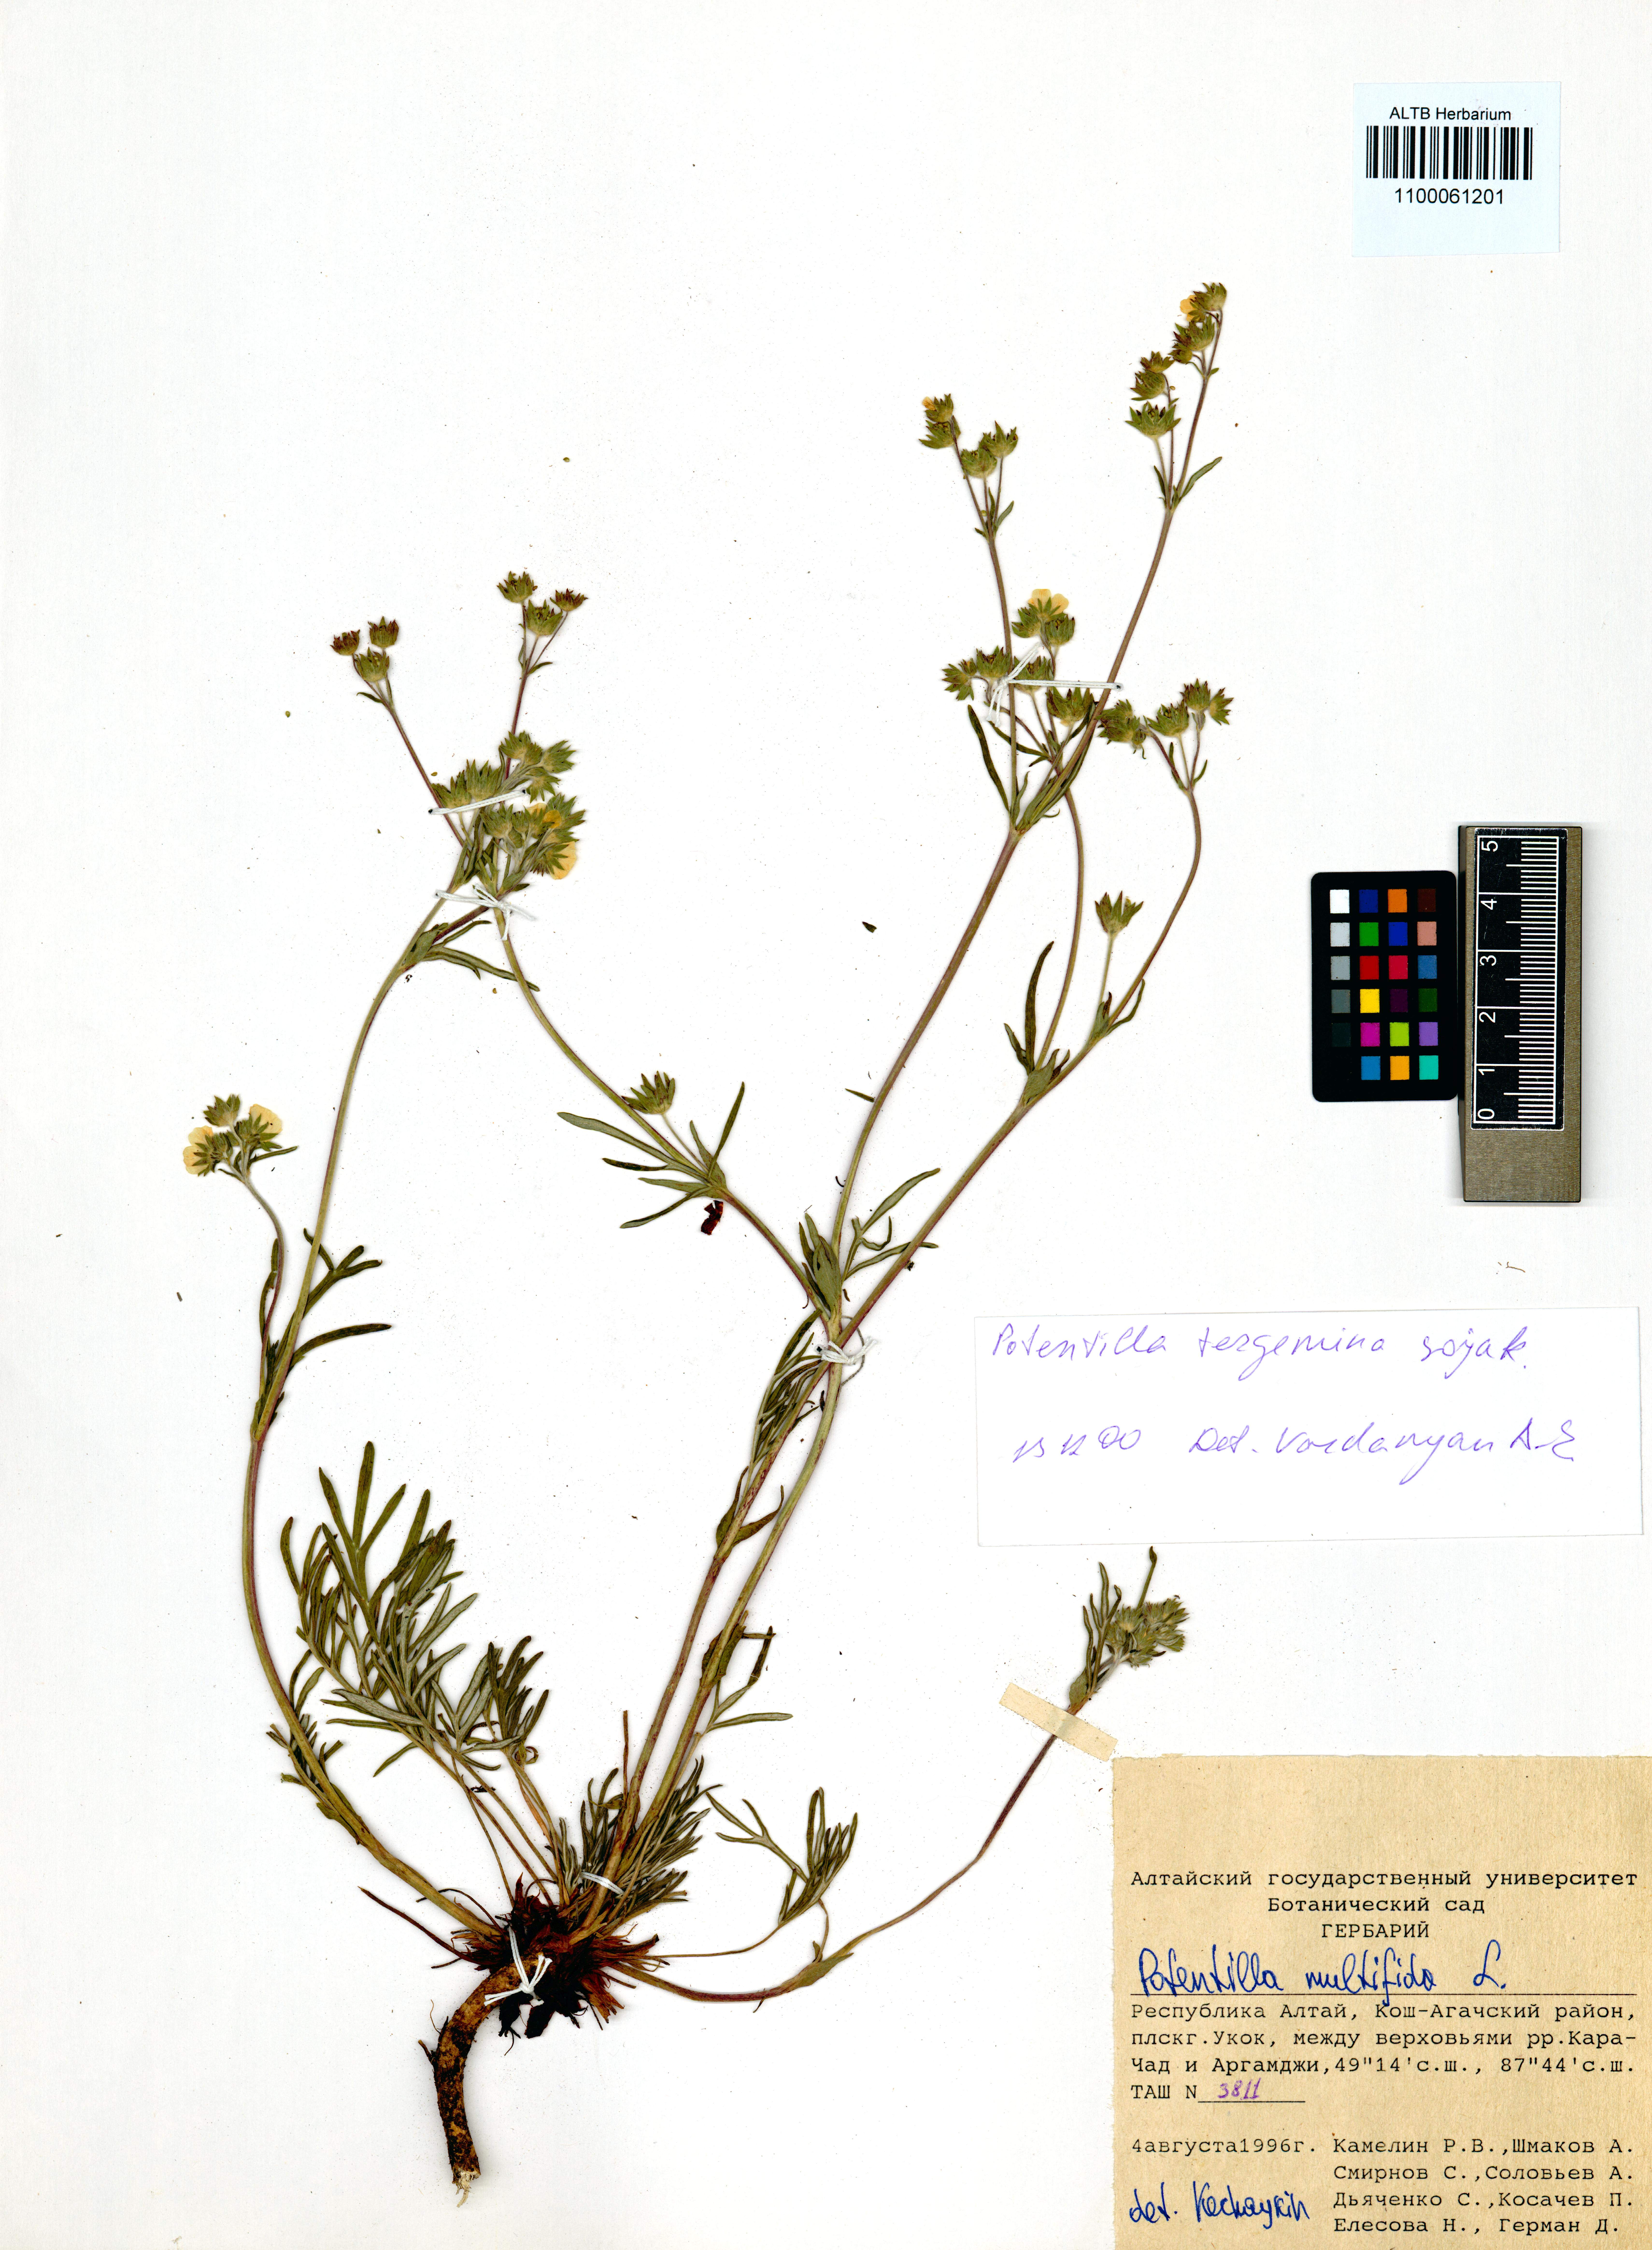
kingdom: Plantae
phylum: Tracheophyta
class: Magnoliopsida
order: Rosales
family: Rosaceae
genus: Potentilla
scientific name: Potentilla multifida
